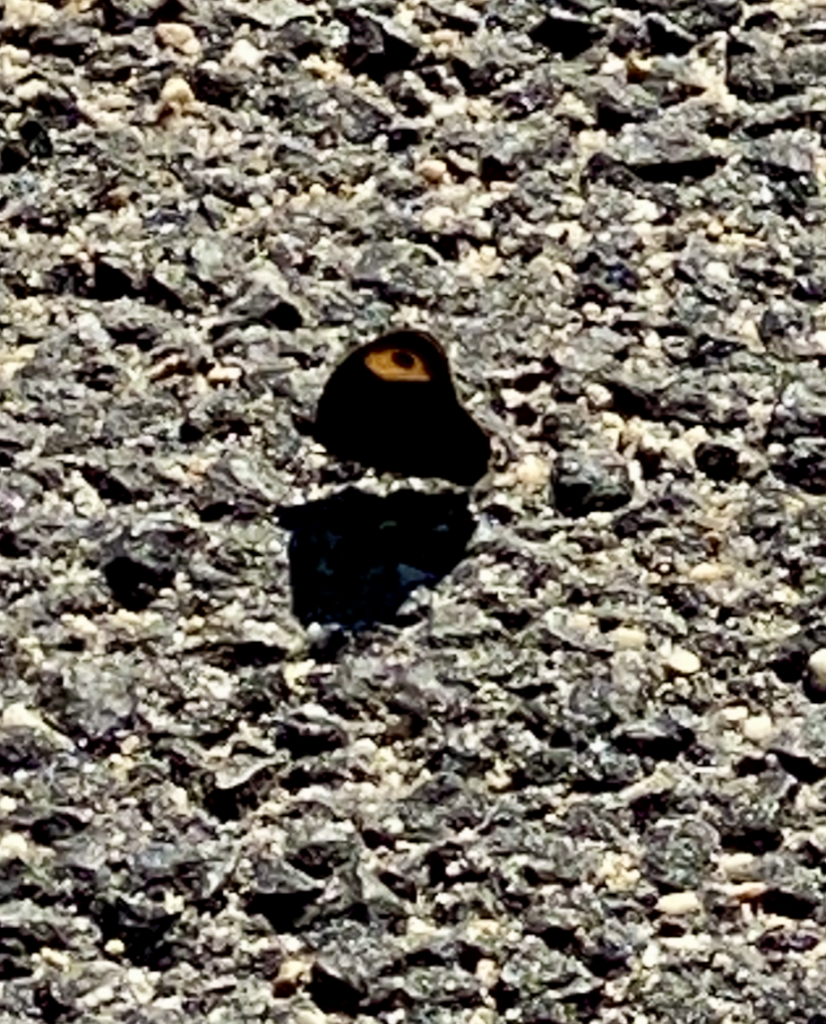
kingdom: Animalia
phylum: Arthropoda
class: Insecta
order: Lepidoptera
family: Nymphalidae
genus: Cercyonis
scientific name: Cercyonis pegala
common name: Common Wood-Nymph
